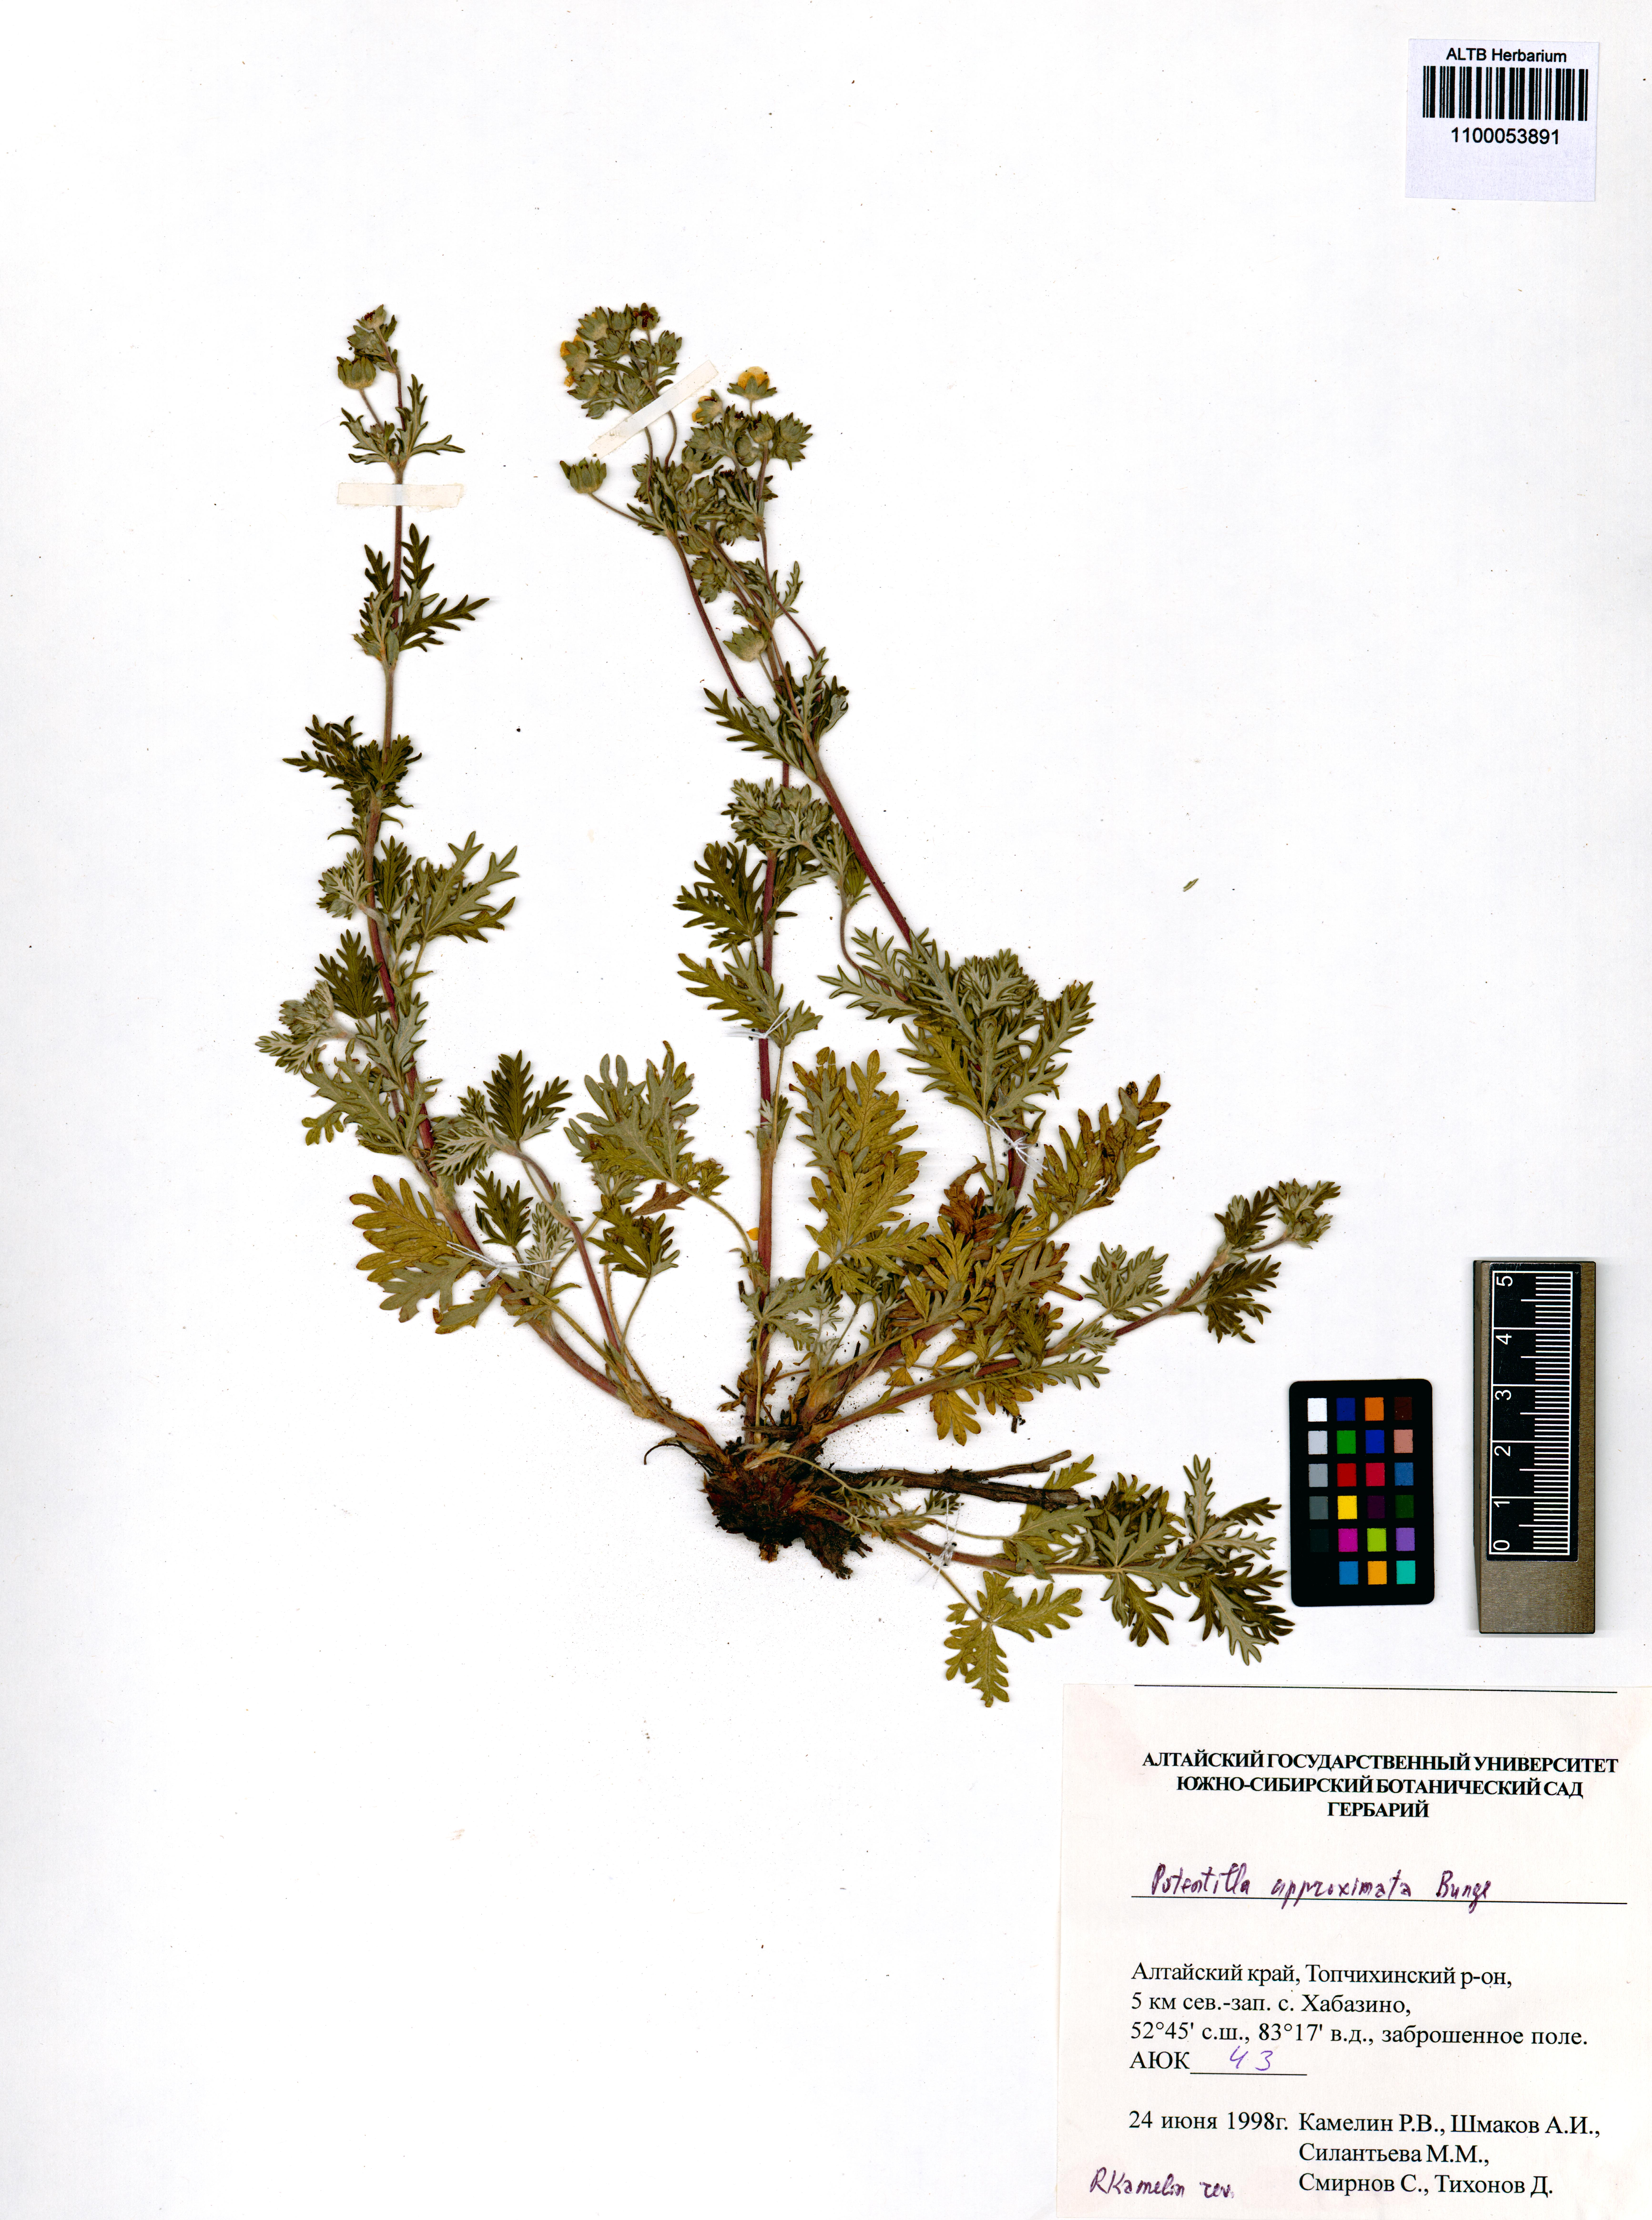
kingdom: Plantae
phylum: Tracheophyta
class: Magnoliopsida
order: Rosales
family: Rosaceae
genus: Potentilla
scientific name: Potentilla conferta
